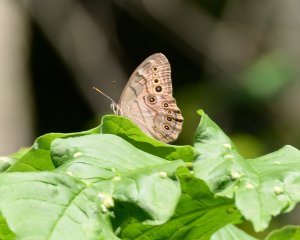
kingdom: Animalia
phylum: Arthropoda
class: Insecta
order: Lepidoptera
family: Nymphalidae
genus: Lethe
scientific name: Lethe anthedon
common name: Northern Pearly-Eye
